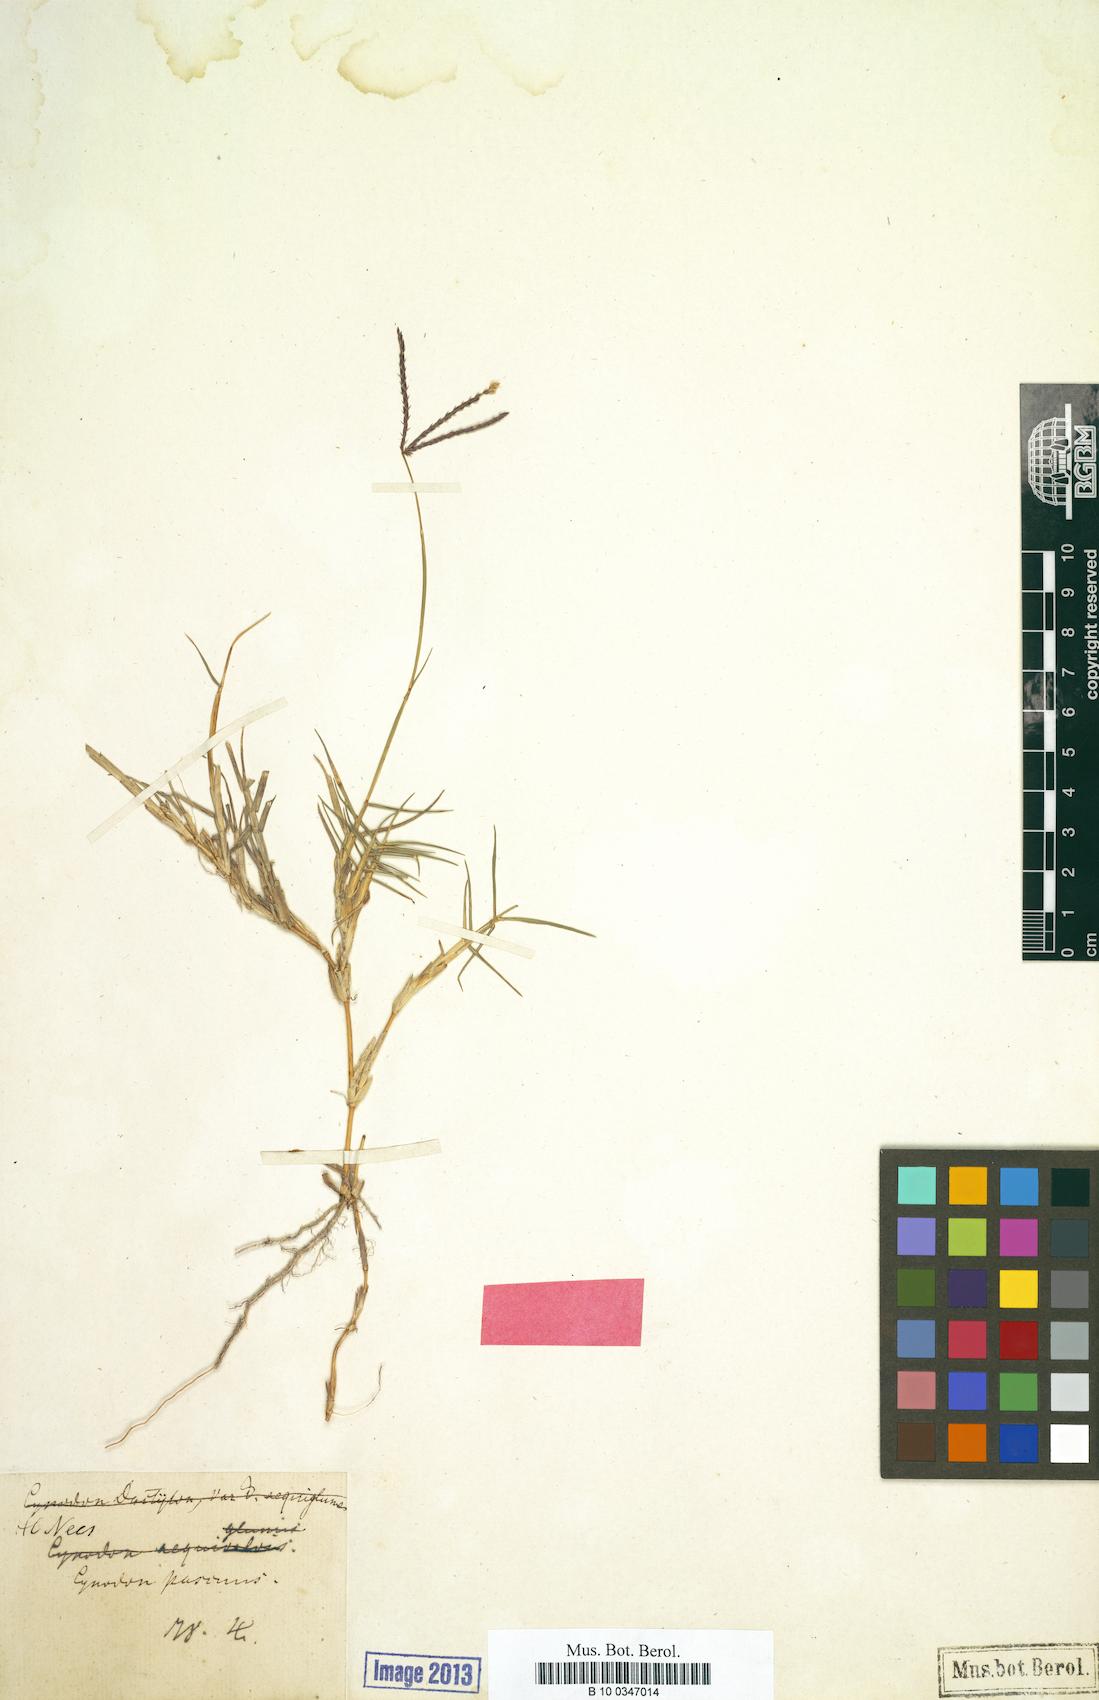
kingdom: Plantae
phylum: Tracheophyta
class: Liliopsida
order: Poales
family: Poaceae
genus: Cynodon
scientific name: Cynodon dactylon
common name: Bermuda grass
